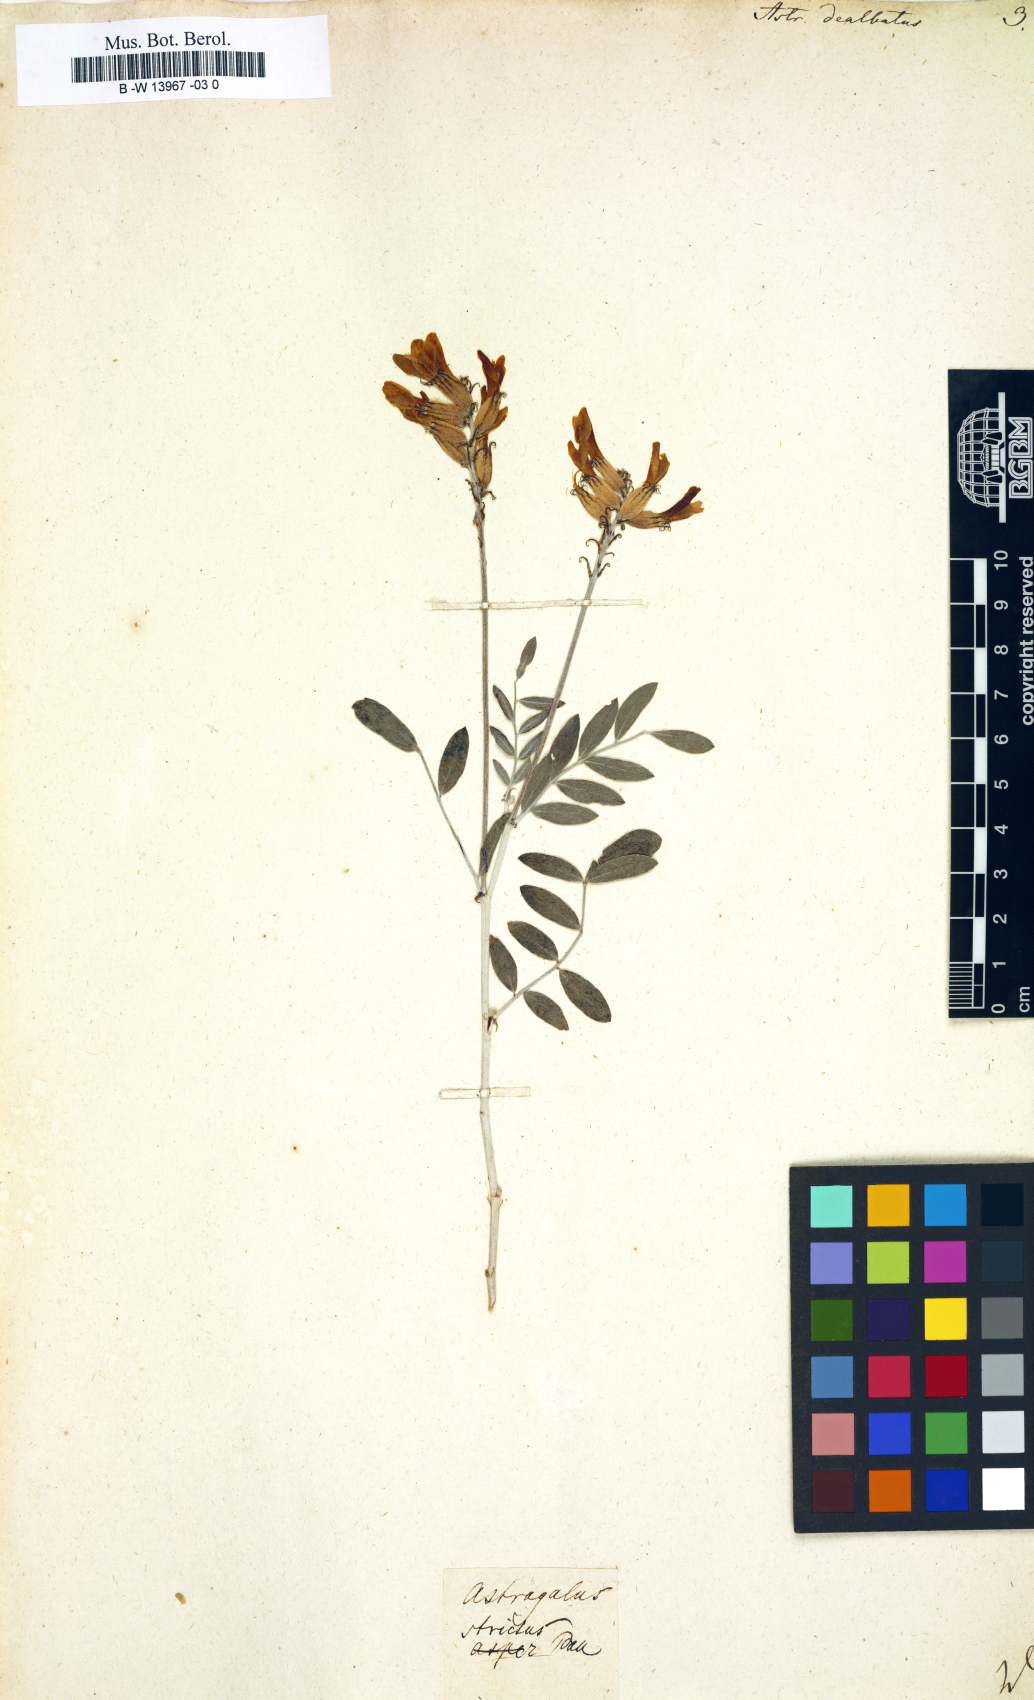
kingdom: Plantae
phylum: Tracheophyta
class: Magnoliopsida
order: Fabales
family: Fabaceae
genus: Astragalus
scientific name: Astragalus
